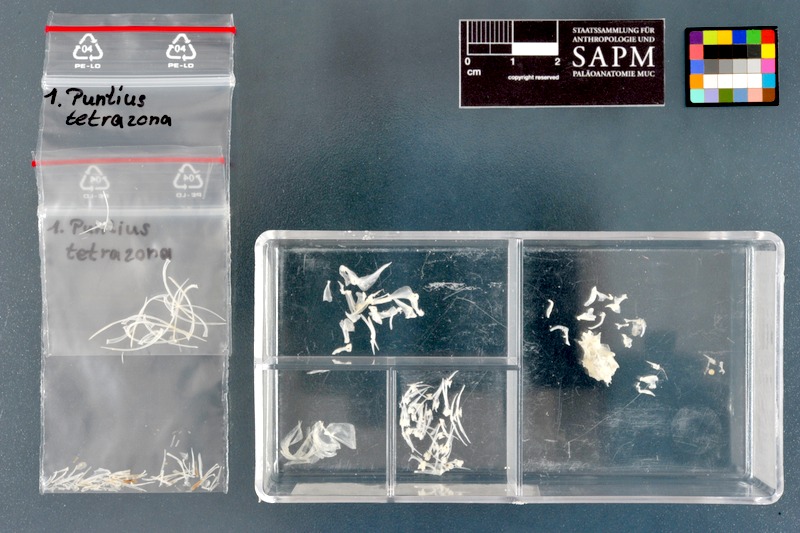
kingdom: Animalia
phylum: Chordata
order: Cypriniformes
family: Cyprinidae
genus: Puntigrus
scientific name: Puntigrus tetrazona
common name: Tiger barb
